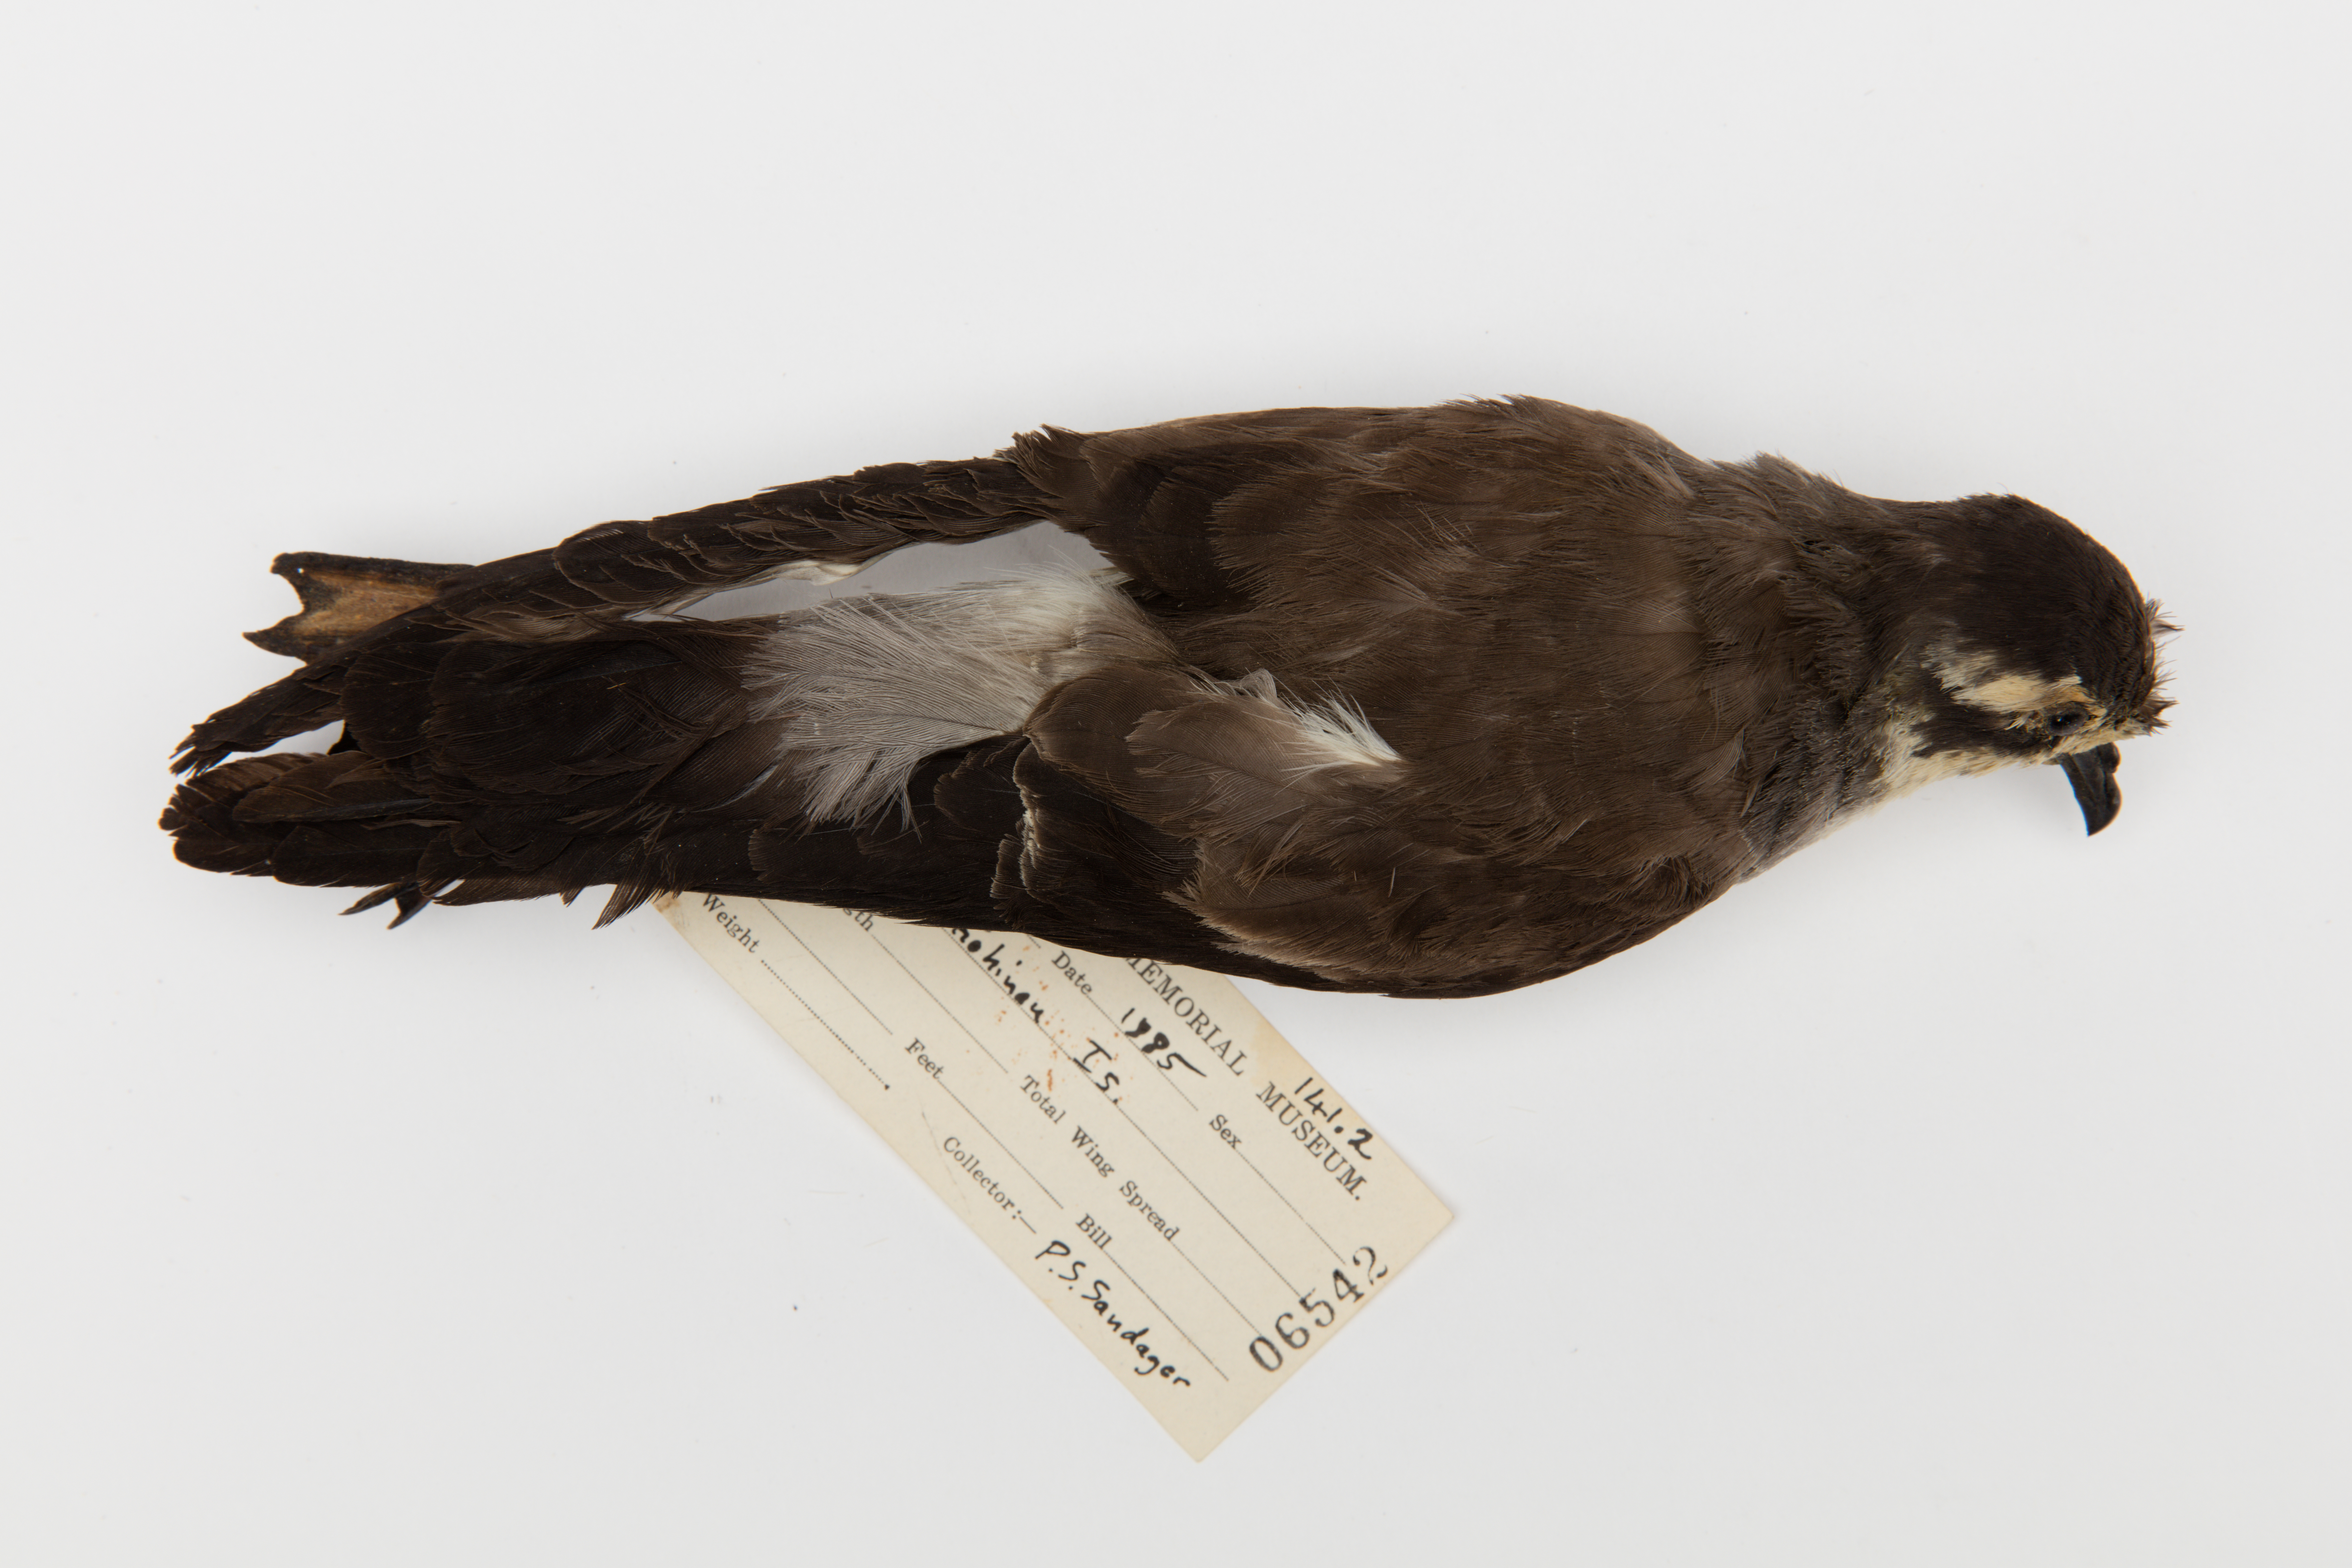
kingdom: Animalia
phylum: Chordata
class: Aves
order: Procellariiformes
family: Hydrobatidae
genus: Pelagodroma
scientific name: Pelagodroma marina
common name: White-faced storm-petrel
